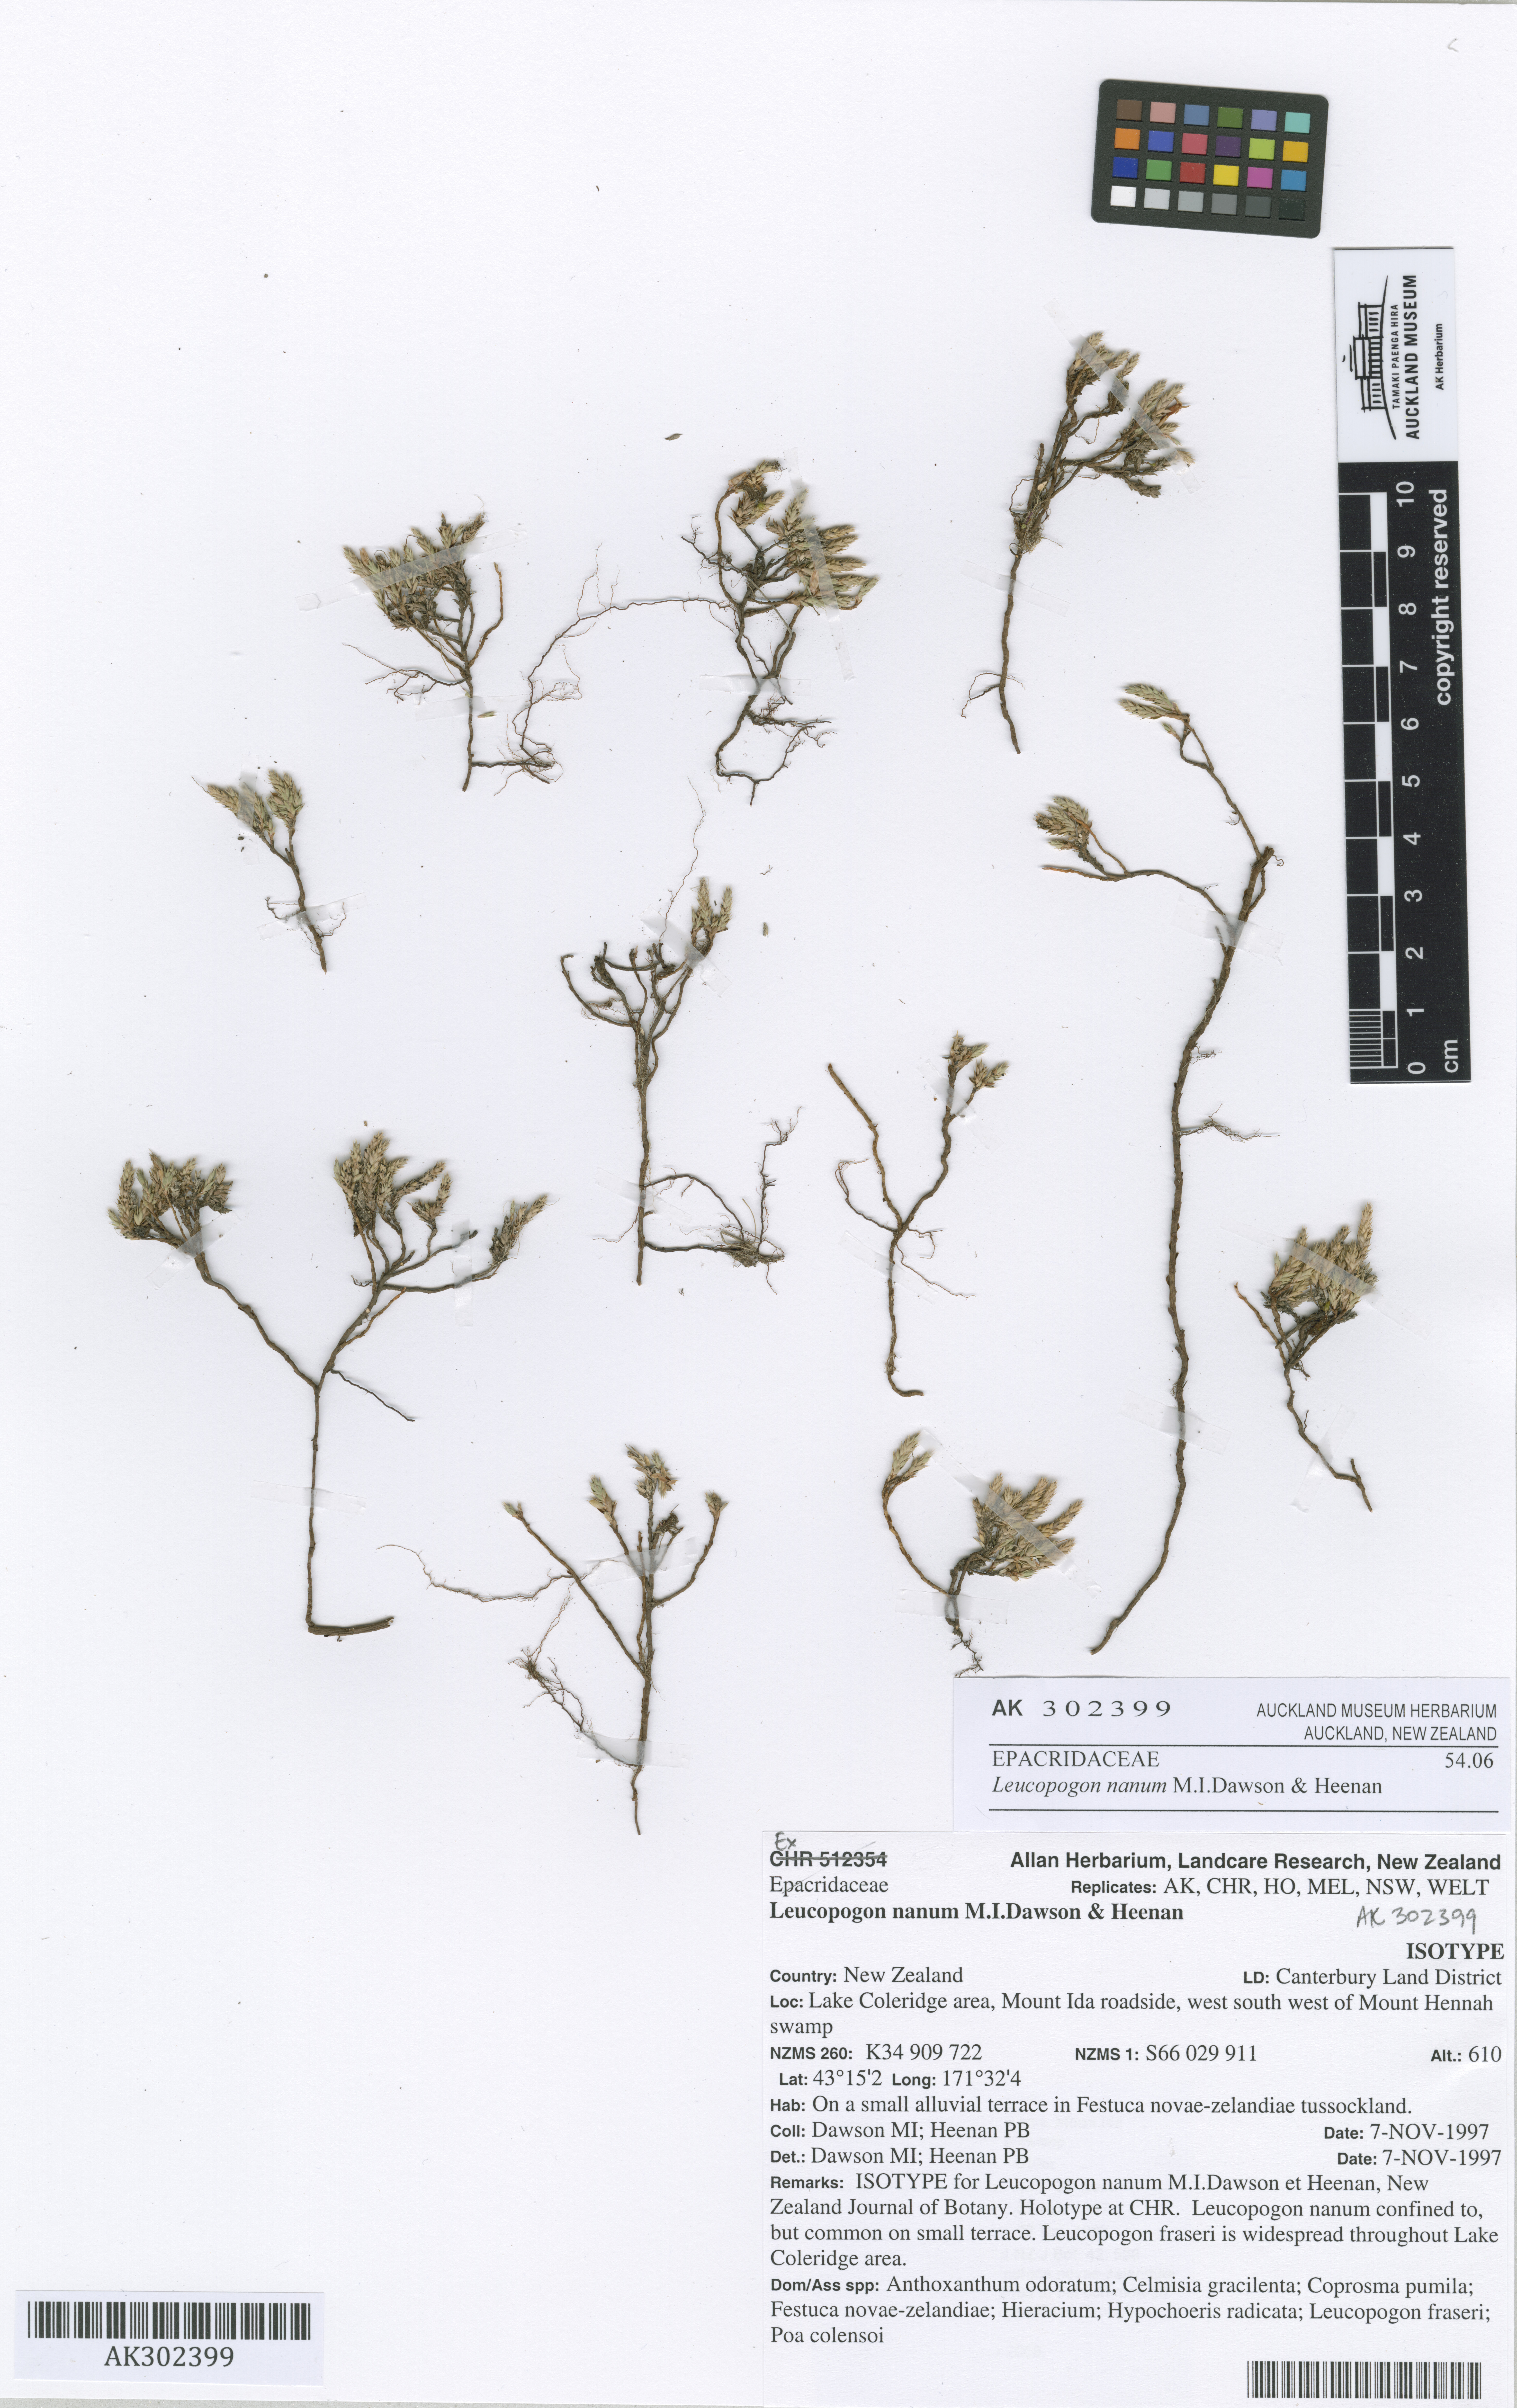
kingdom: Plantae
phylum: Tracheophyta
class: Magnoliopsida
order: Ericales
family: Ericaceae
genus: Styphelia
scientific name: Styphelia nana
